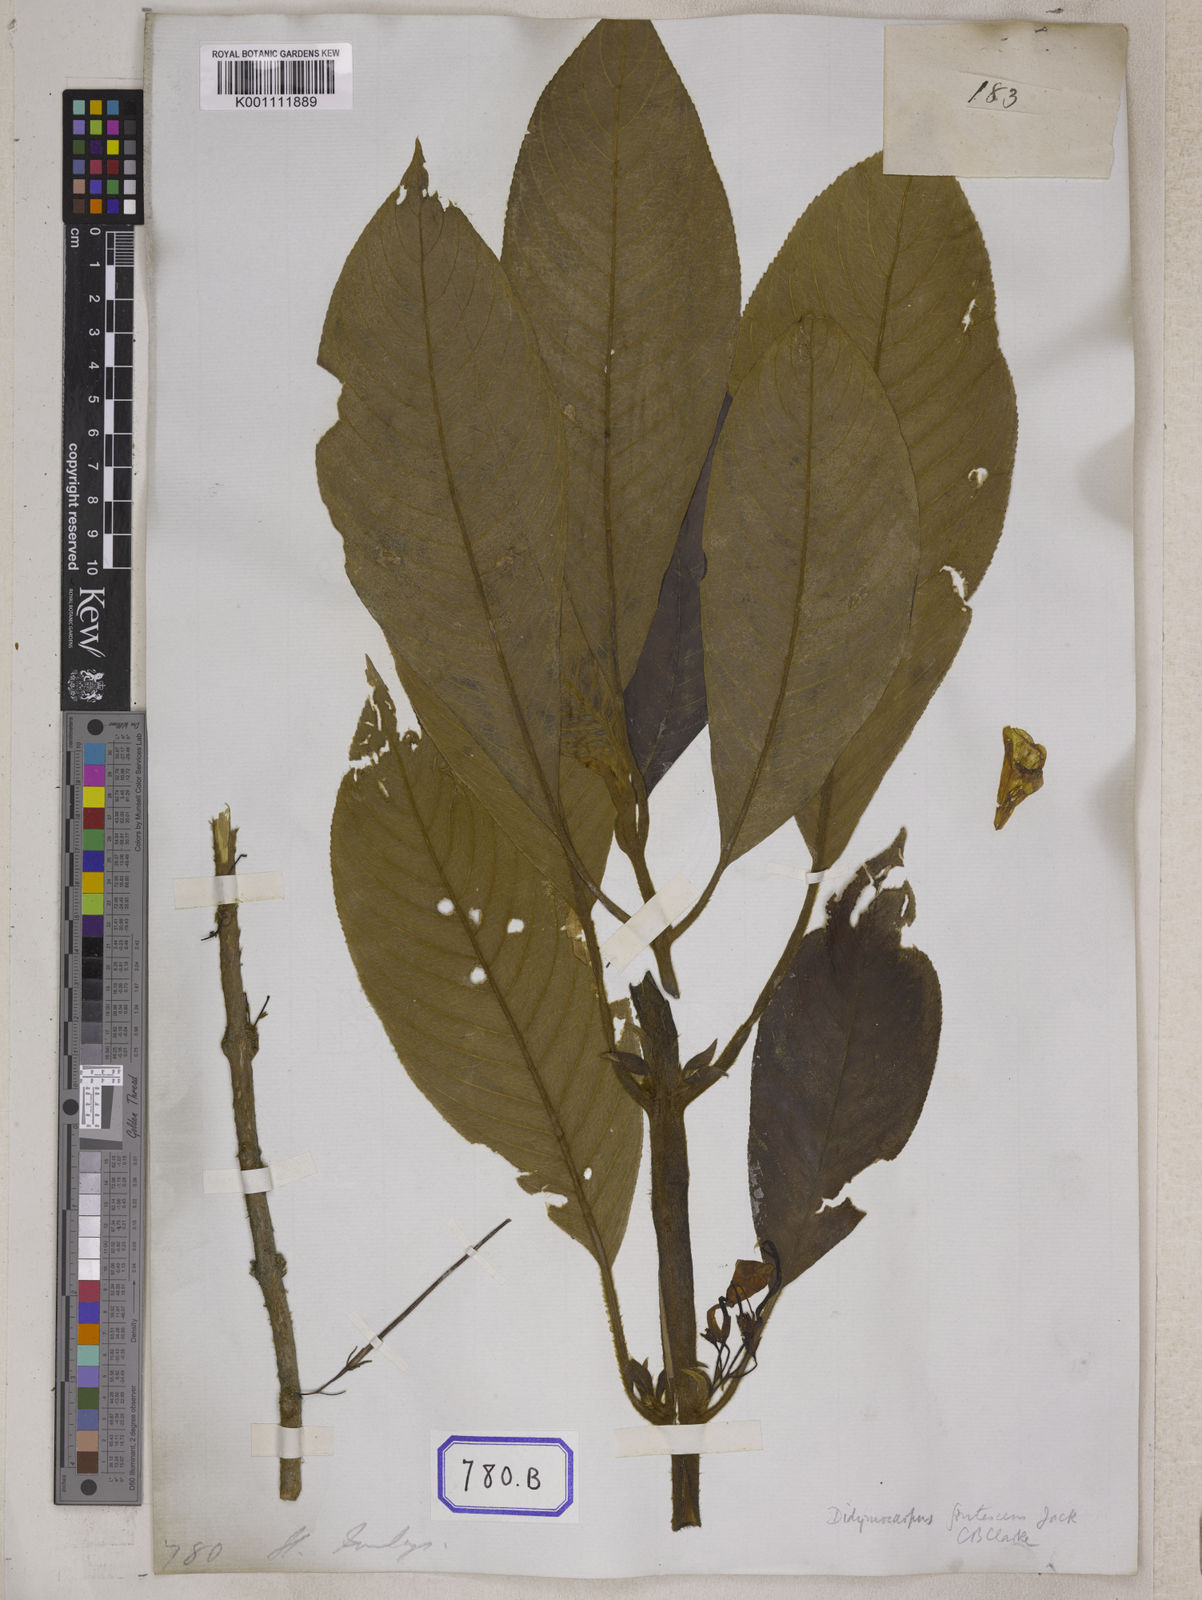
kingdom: Plantae
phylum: Tracheophyta
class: Magnoliopsida
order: Lamiales
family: Gesneriaceae
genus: Didissandra
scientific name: Didissandra frutescens
